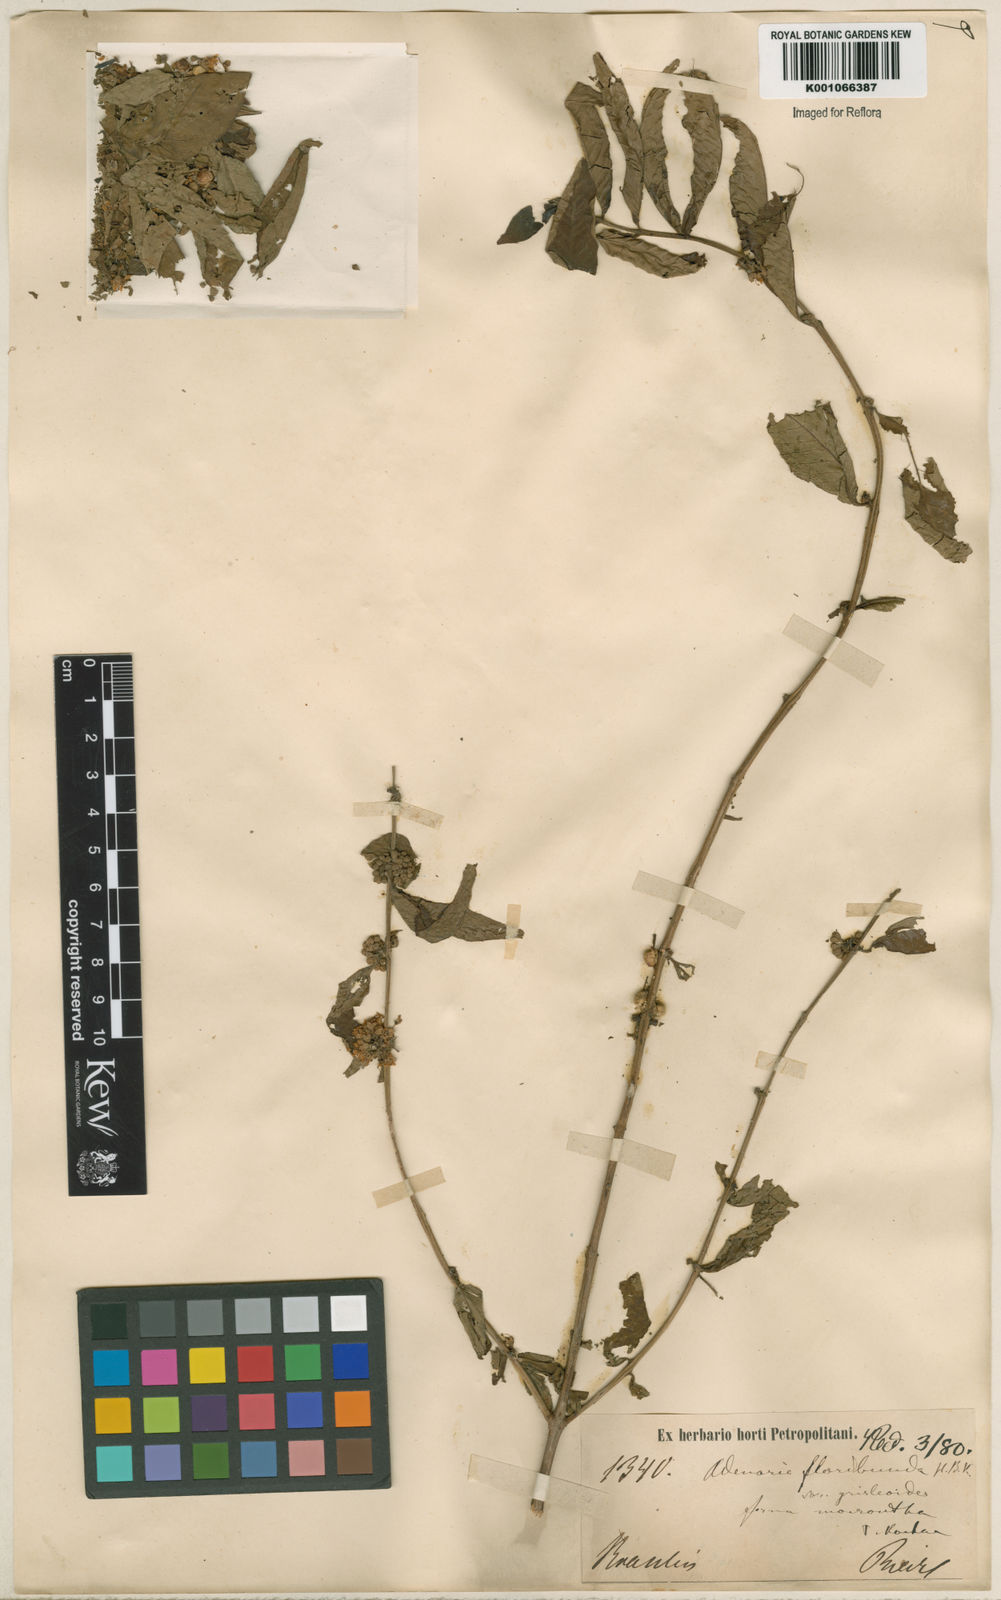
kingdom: Plantae
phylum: Tracheophyta
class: Magnoliopsida
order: Myrtales
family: Lythraceae
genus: Adenaria
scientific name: Adenaria floribunda
